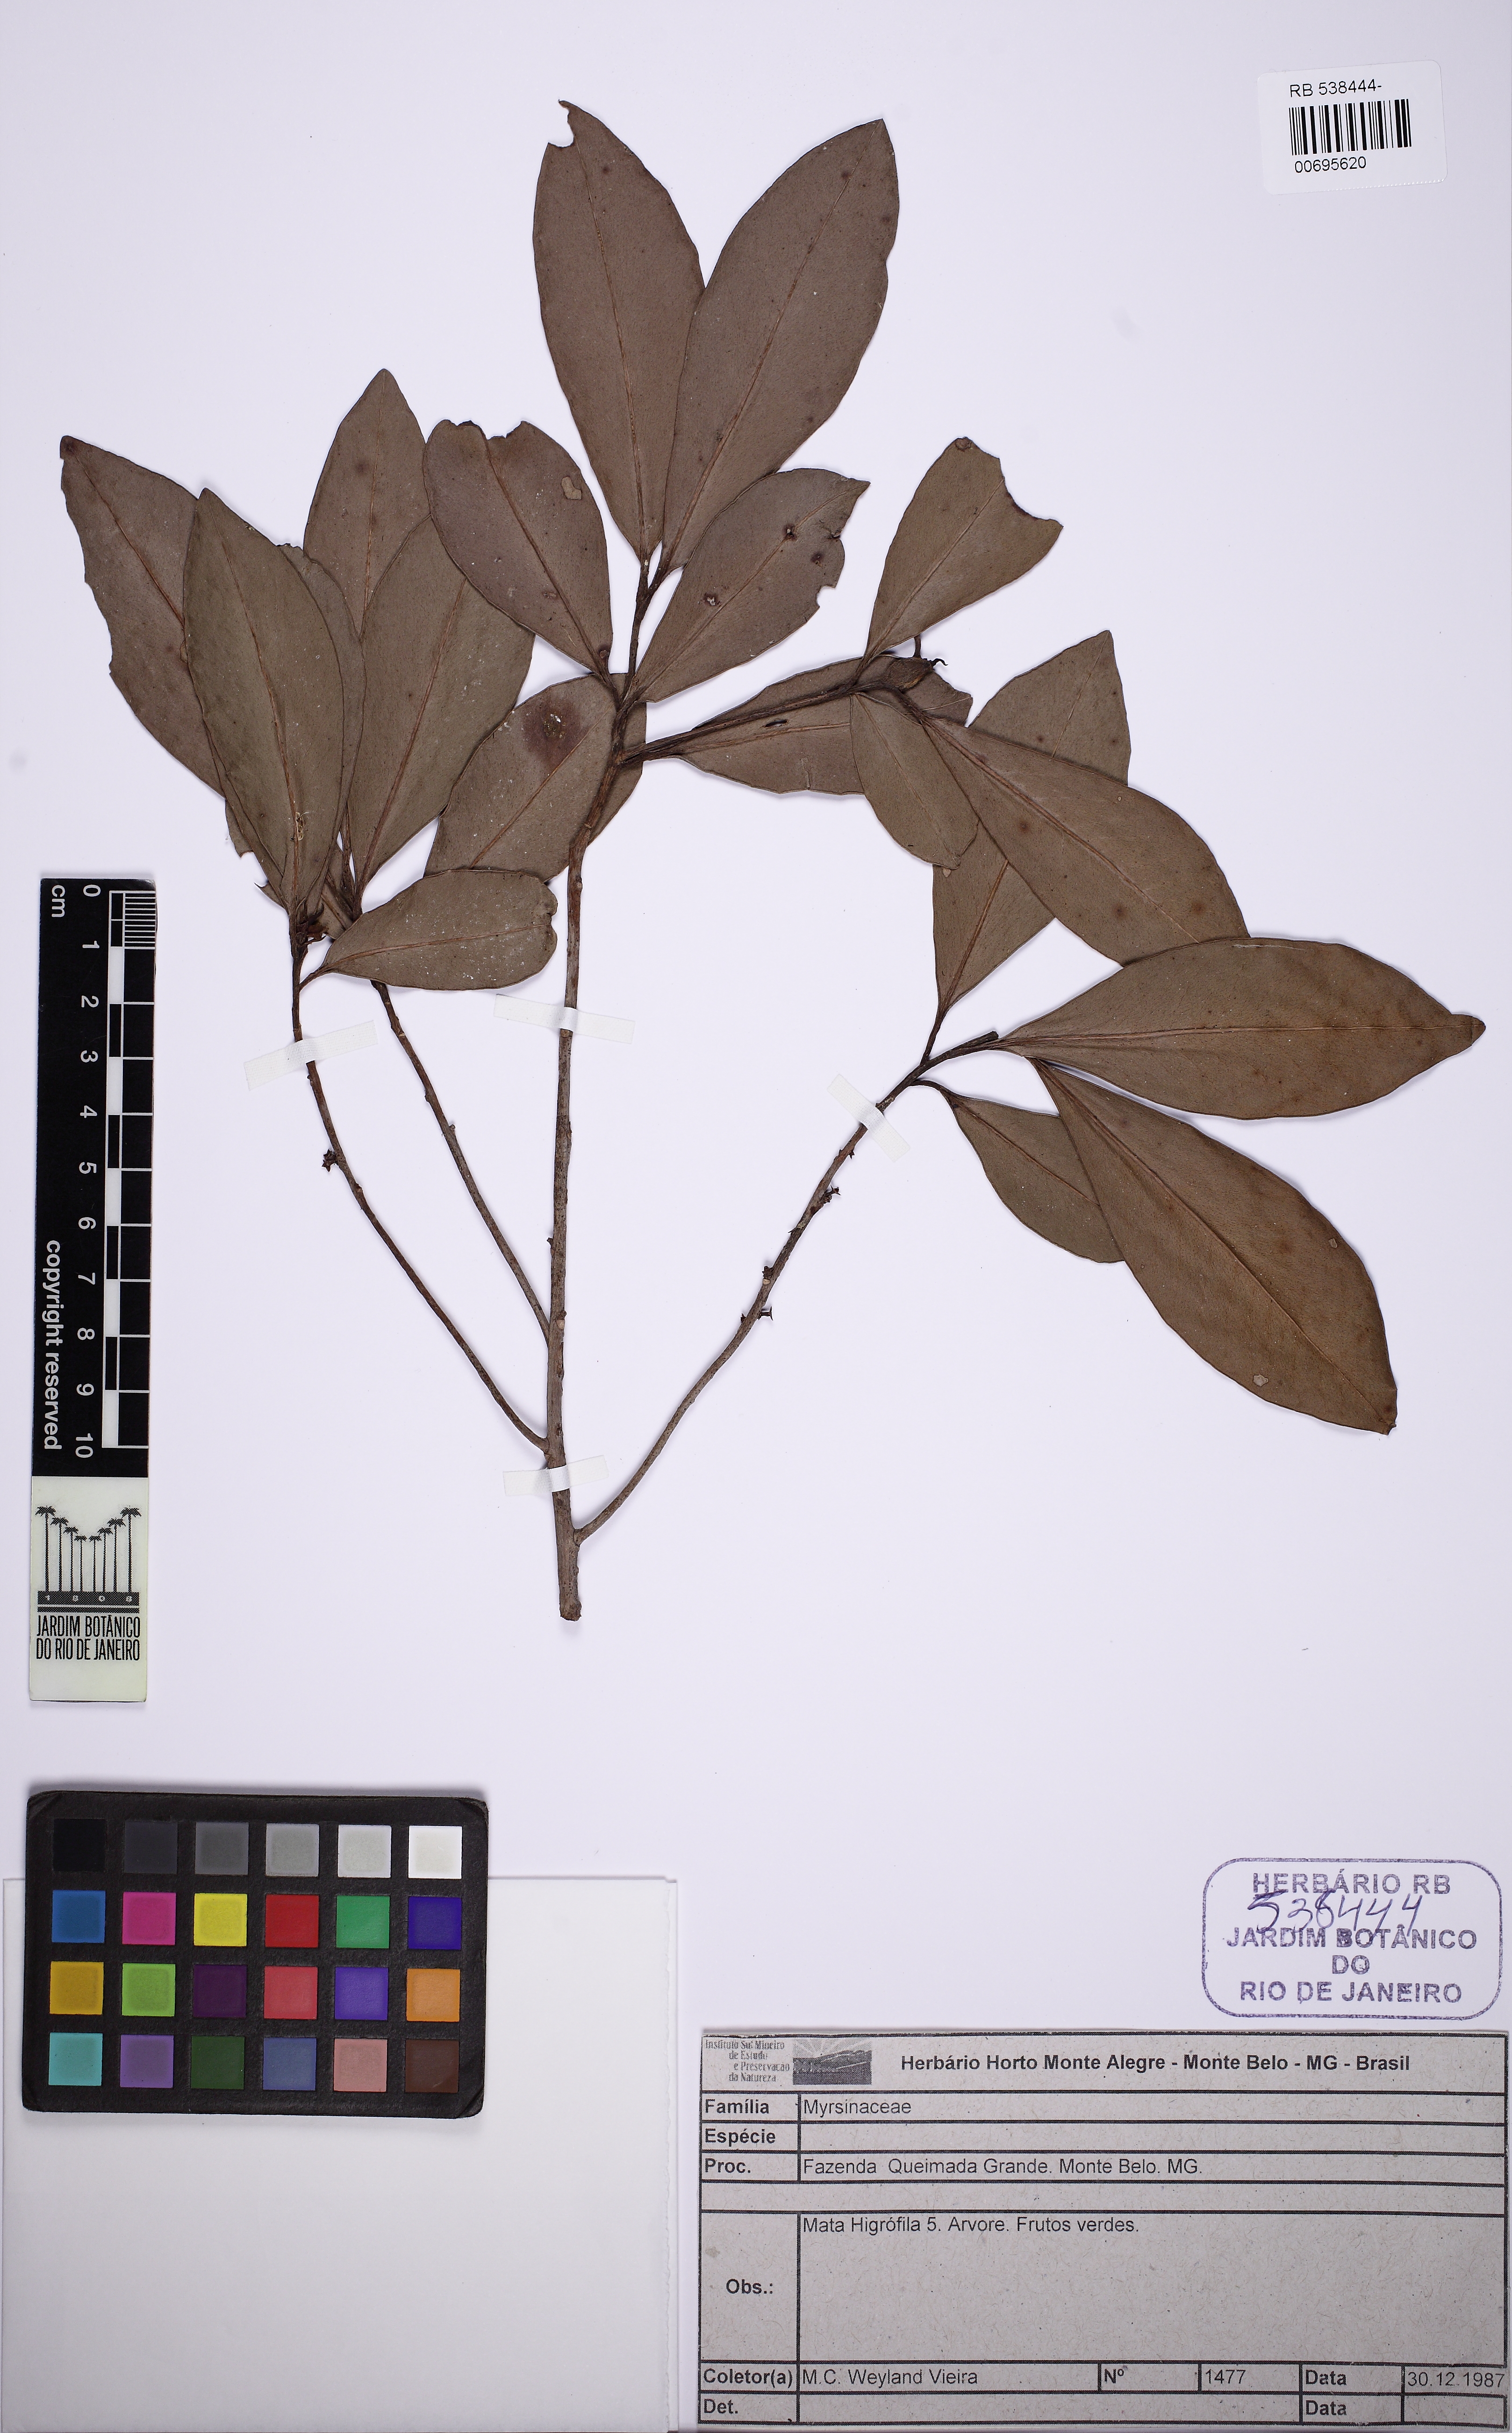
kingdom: Plantae
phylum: Tracheophyta
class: Magnoliopsida
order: Ericales
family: Primulaceae
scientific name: Primulaceae
